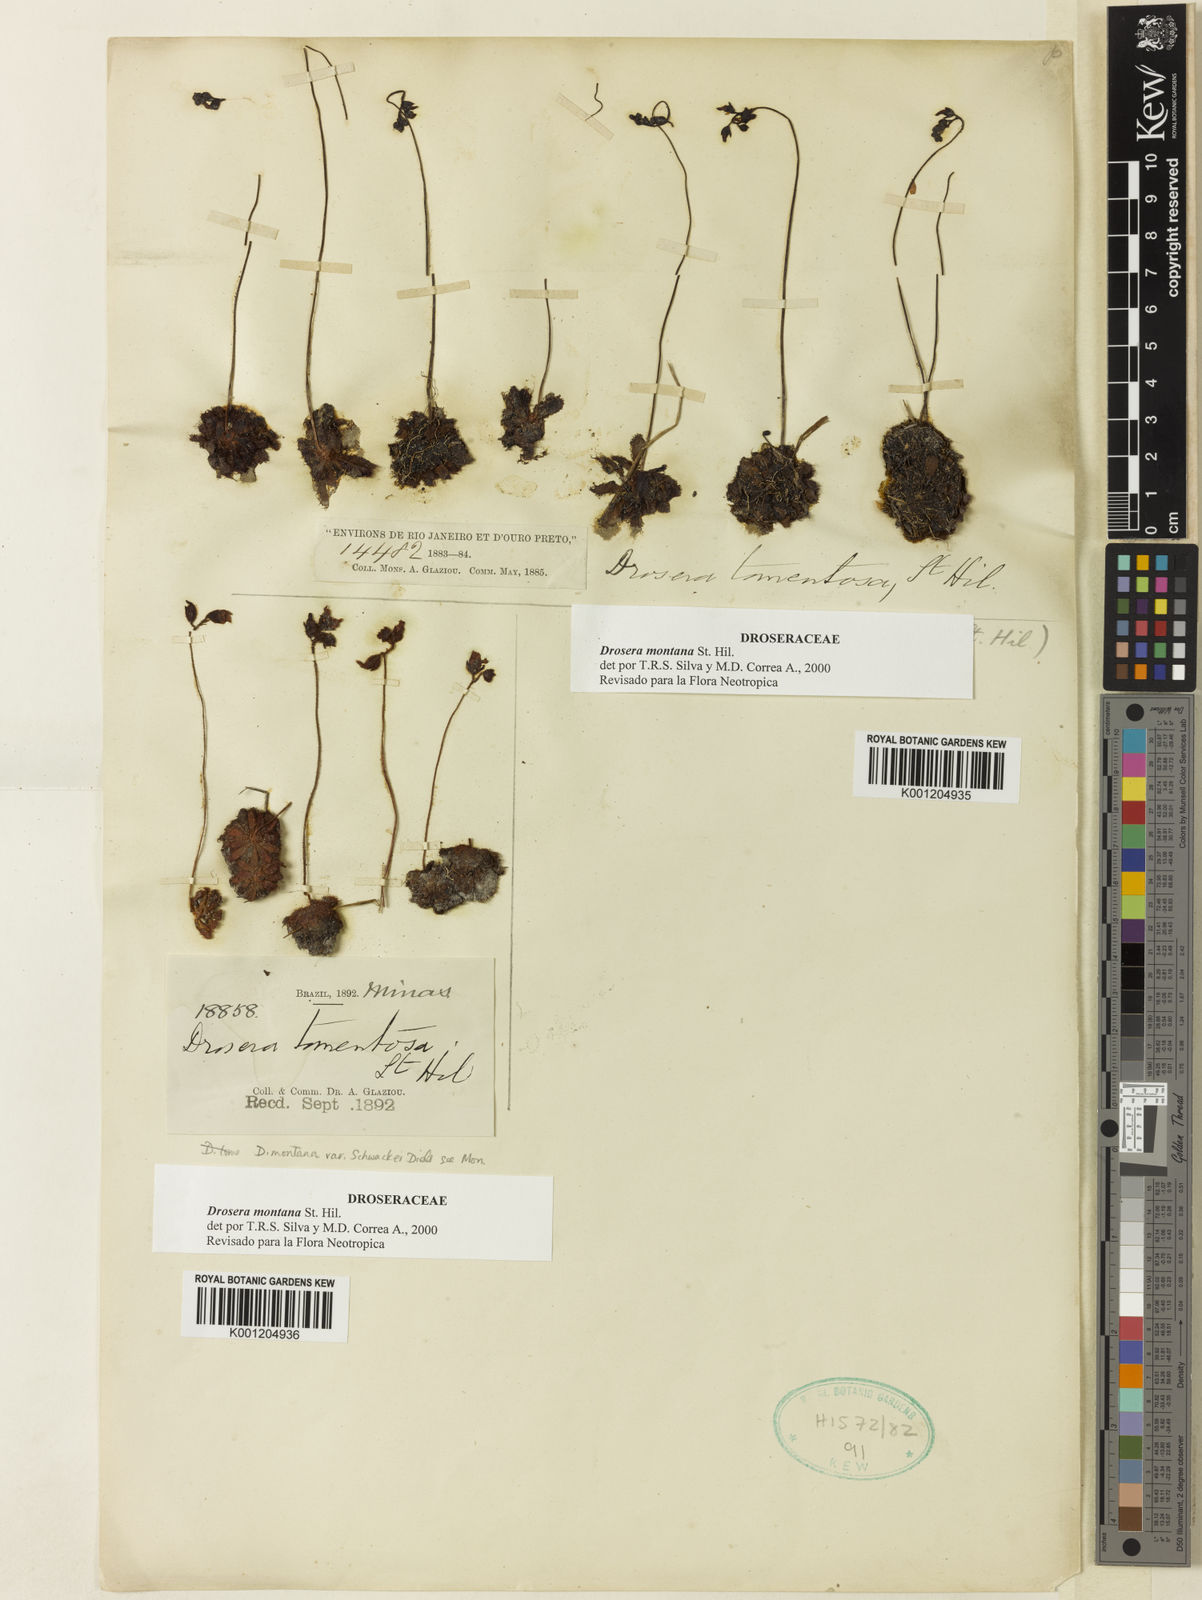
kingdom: Plantae
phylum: Tracheophyta
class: Magnoliopsida
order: Caryophyllales
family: Droseraceae
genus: Drosera
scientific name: Drosera montana
